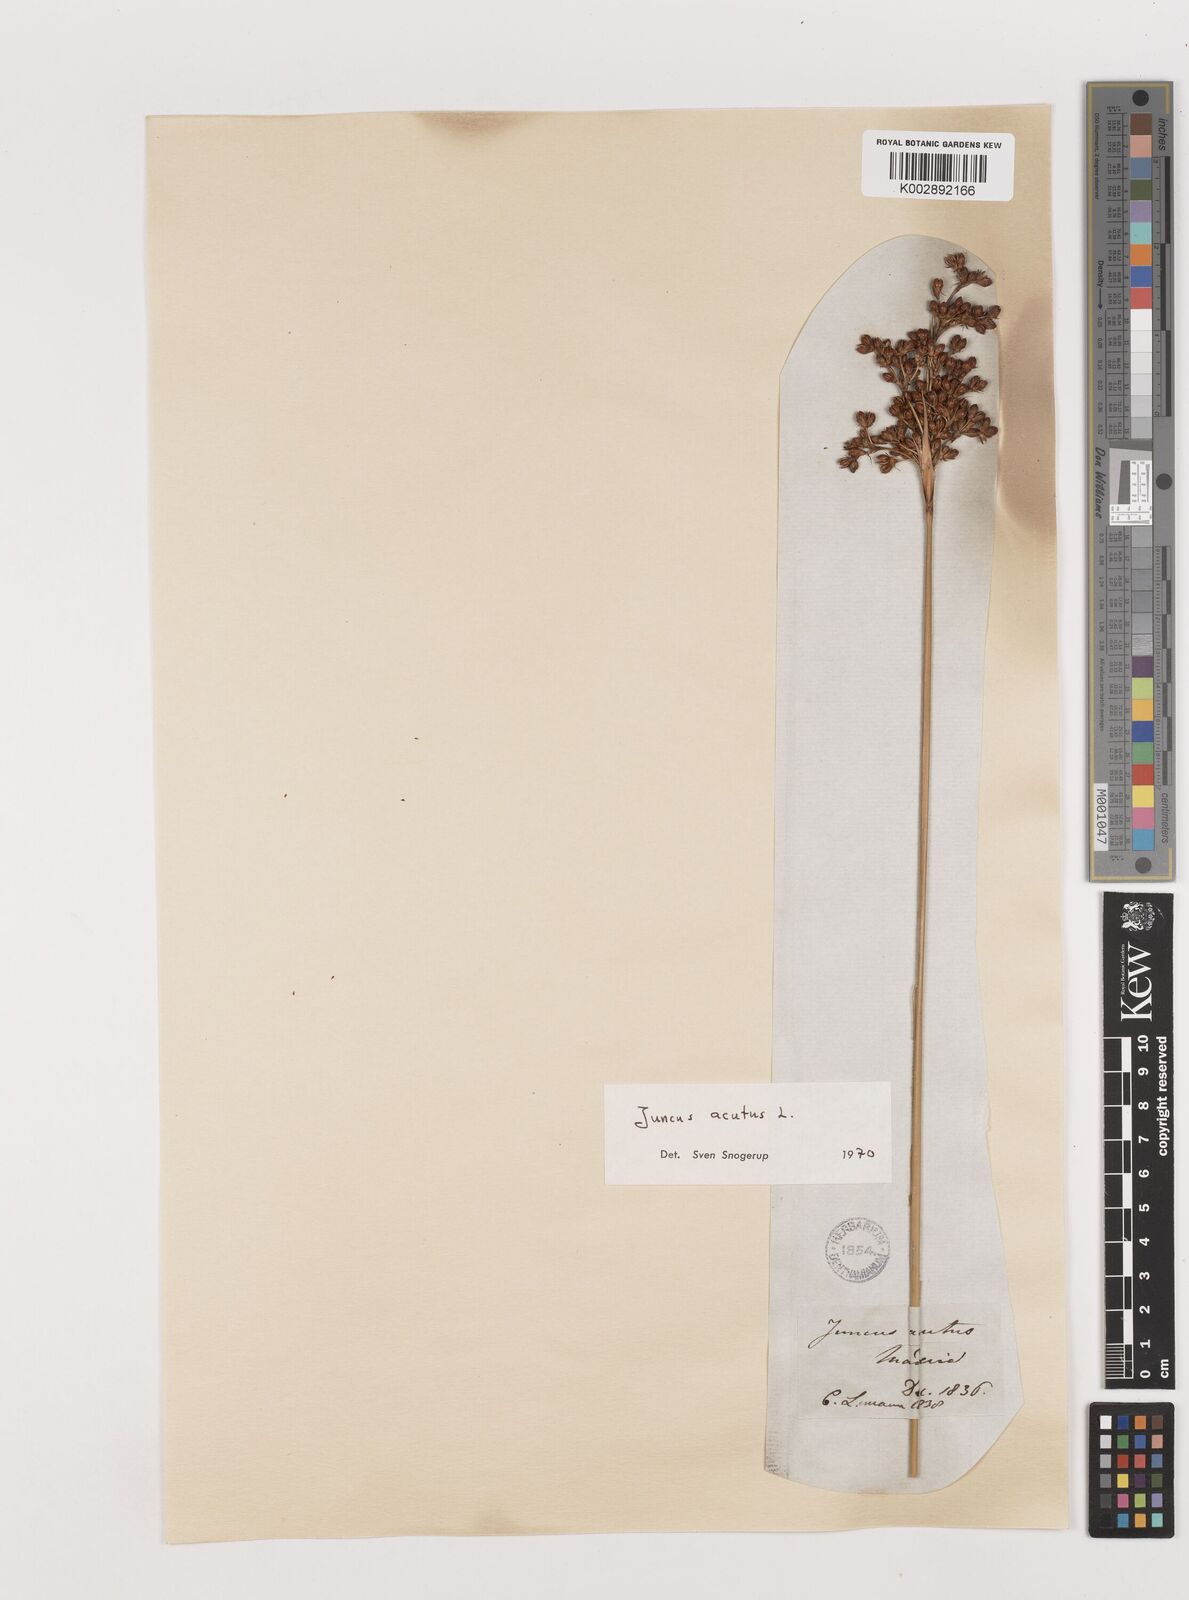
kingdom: Plantae
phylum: Tracheophyta
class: Liliopsida
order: Poales
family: Juncaceae
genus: Juncus
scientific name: Juncus acutus
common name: Sharp rush
